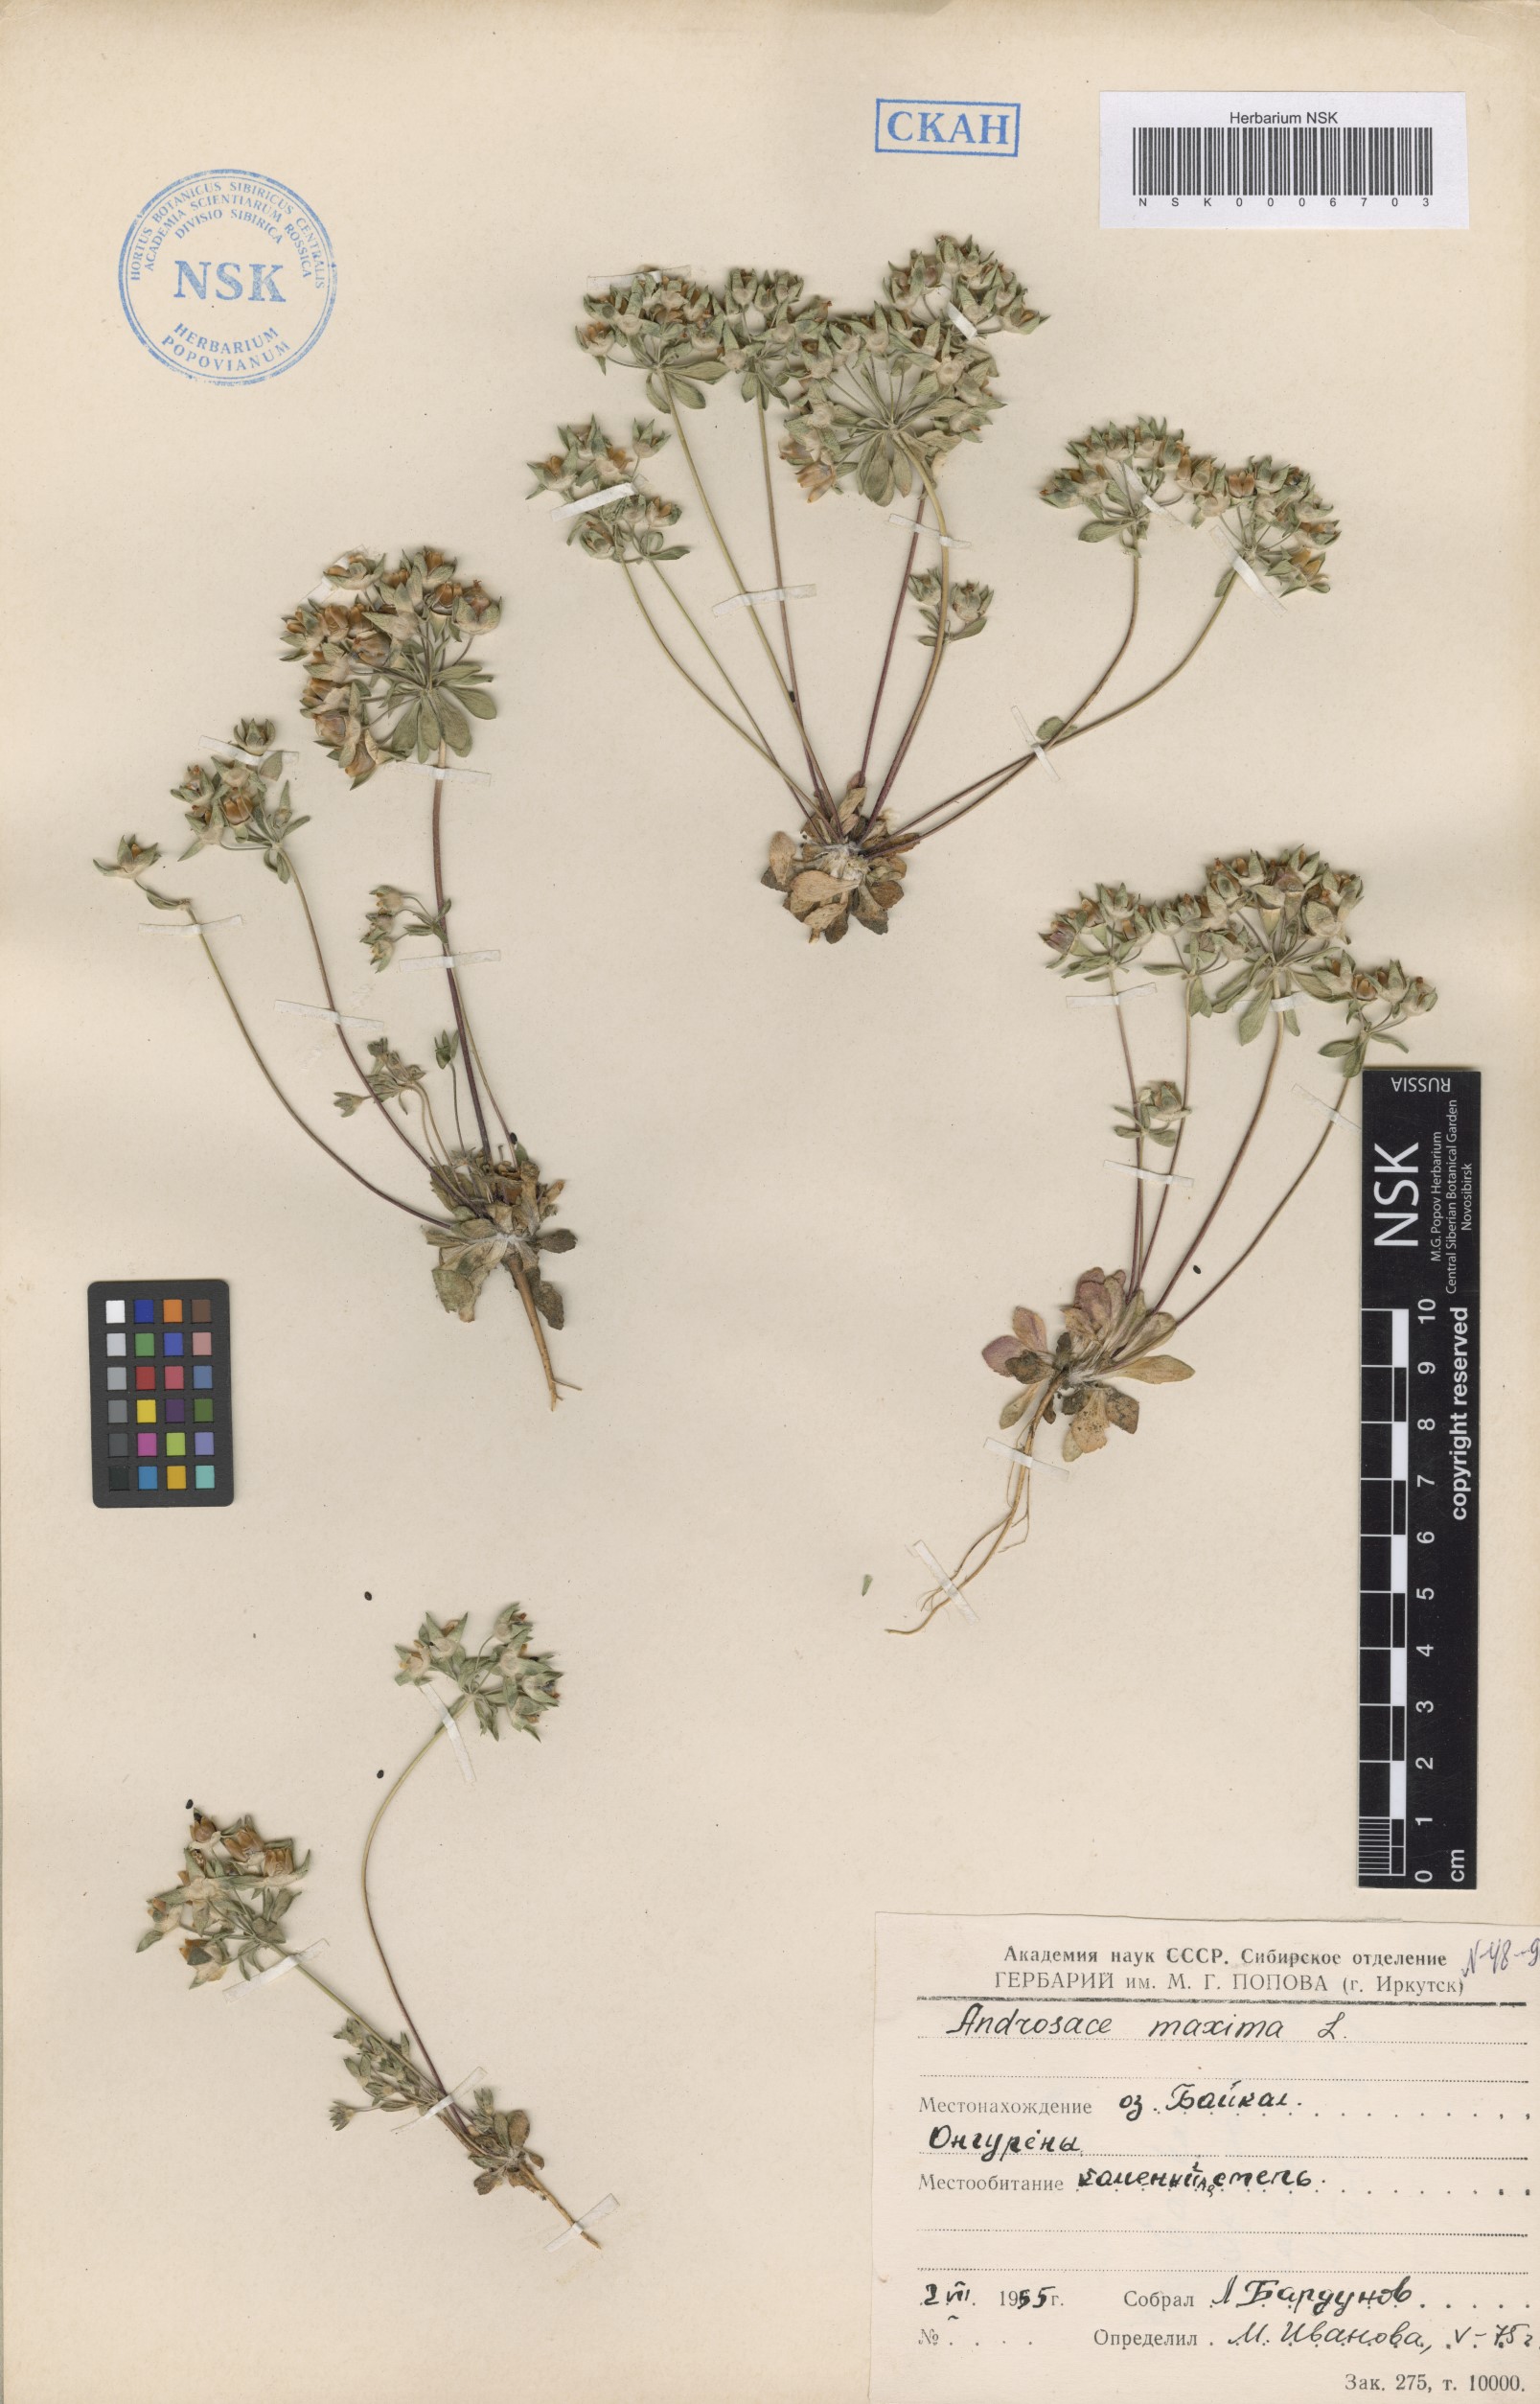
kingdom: Plantae
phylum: Tracheophyta
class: Magnoliopsida
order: Ericales
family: Primulaceae
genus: Androsace
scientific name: Androsace maxima
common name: Annual androsace
